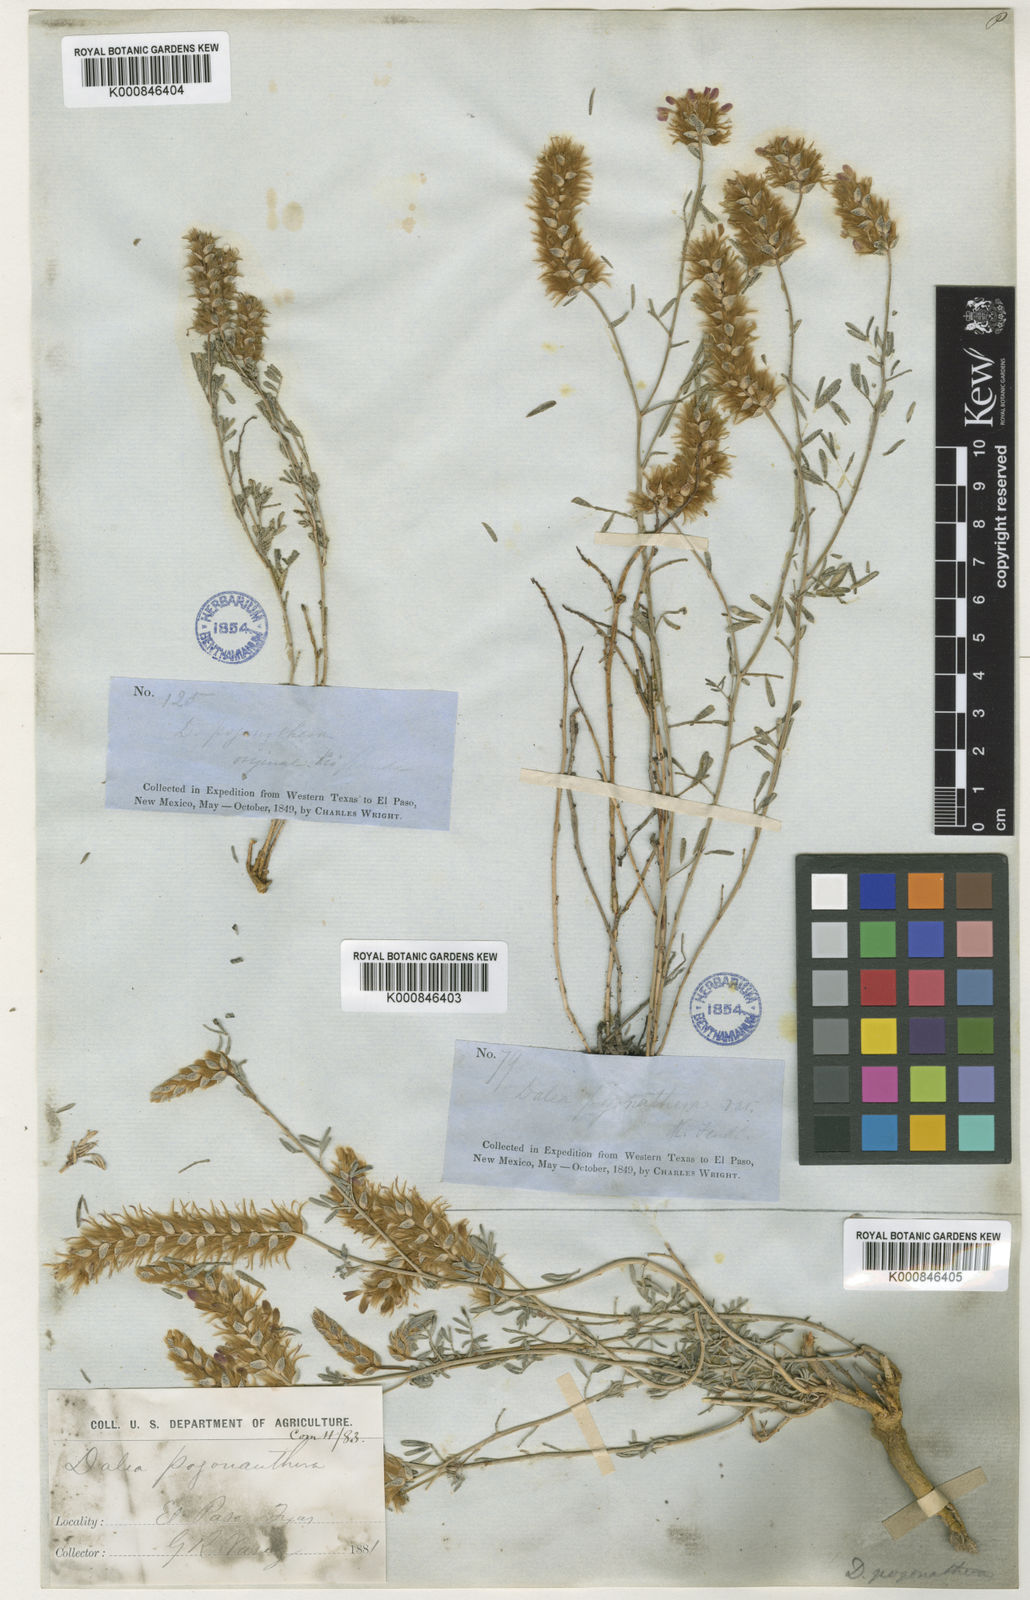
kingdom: Plantae
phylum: Tracheophyta
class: Magnoliopsida
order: Fabales
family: Fabaceae
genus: Dalea
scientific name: Dalea
